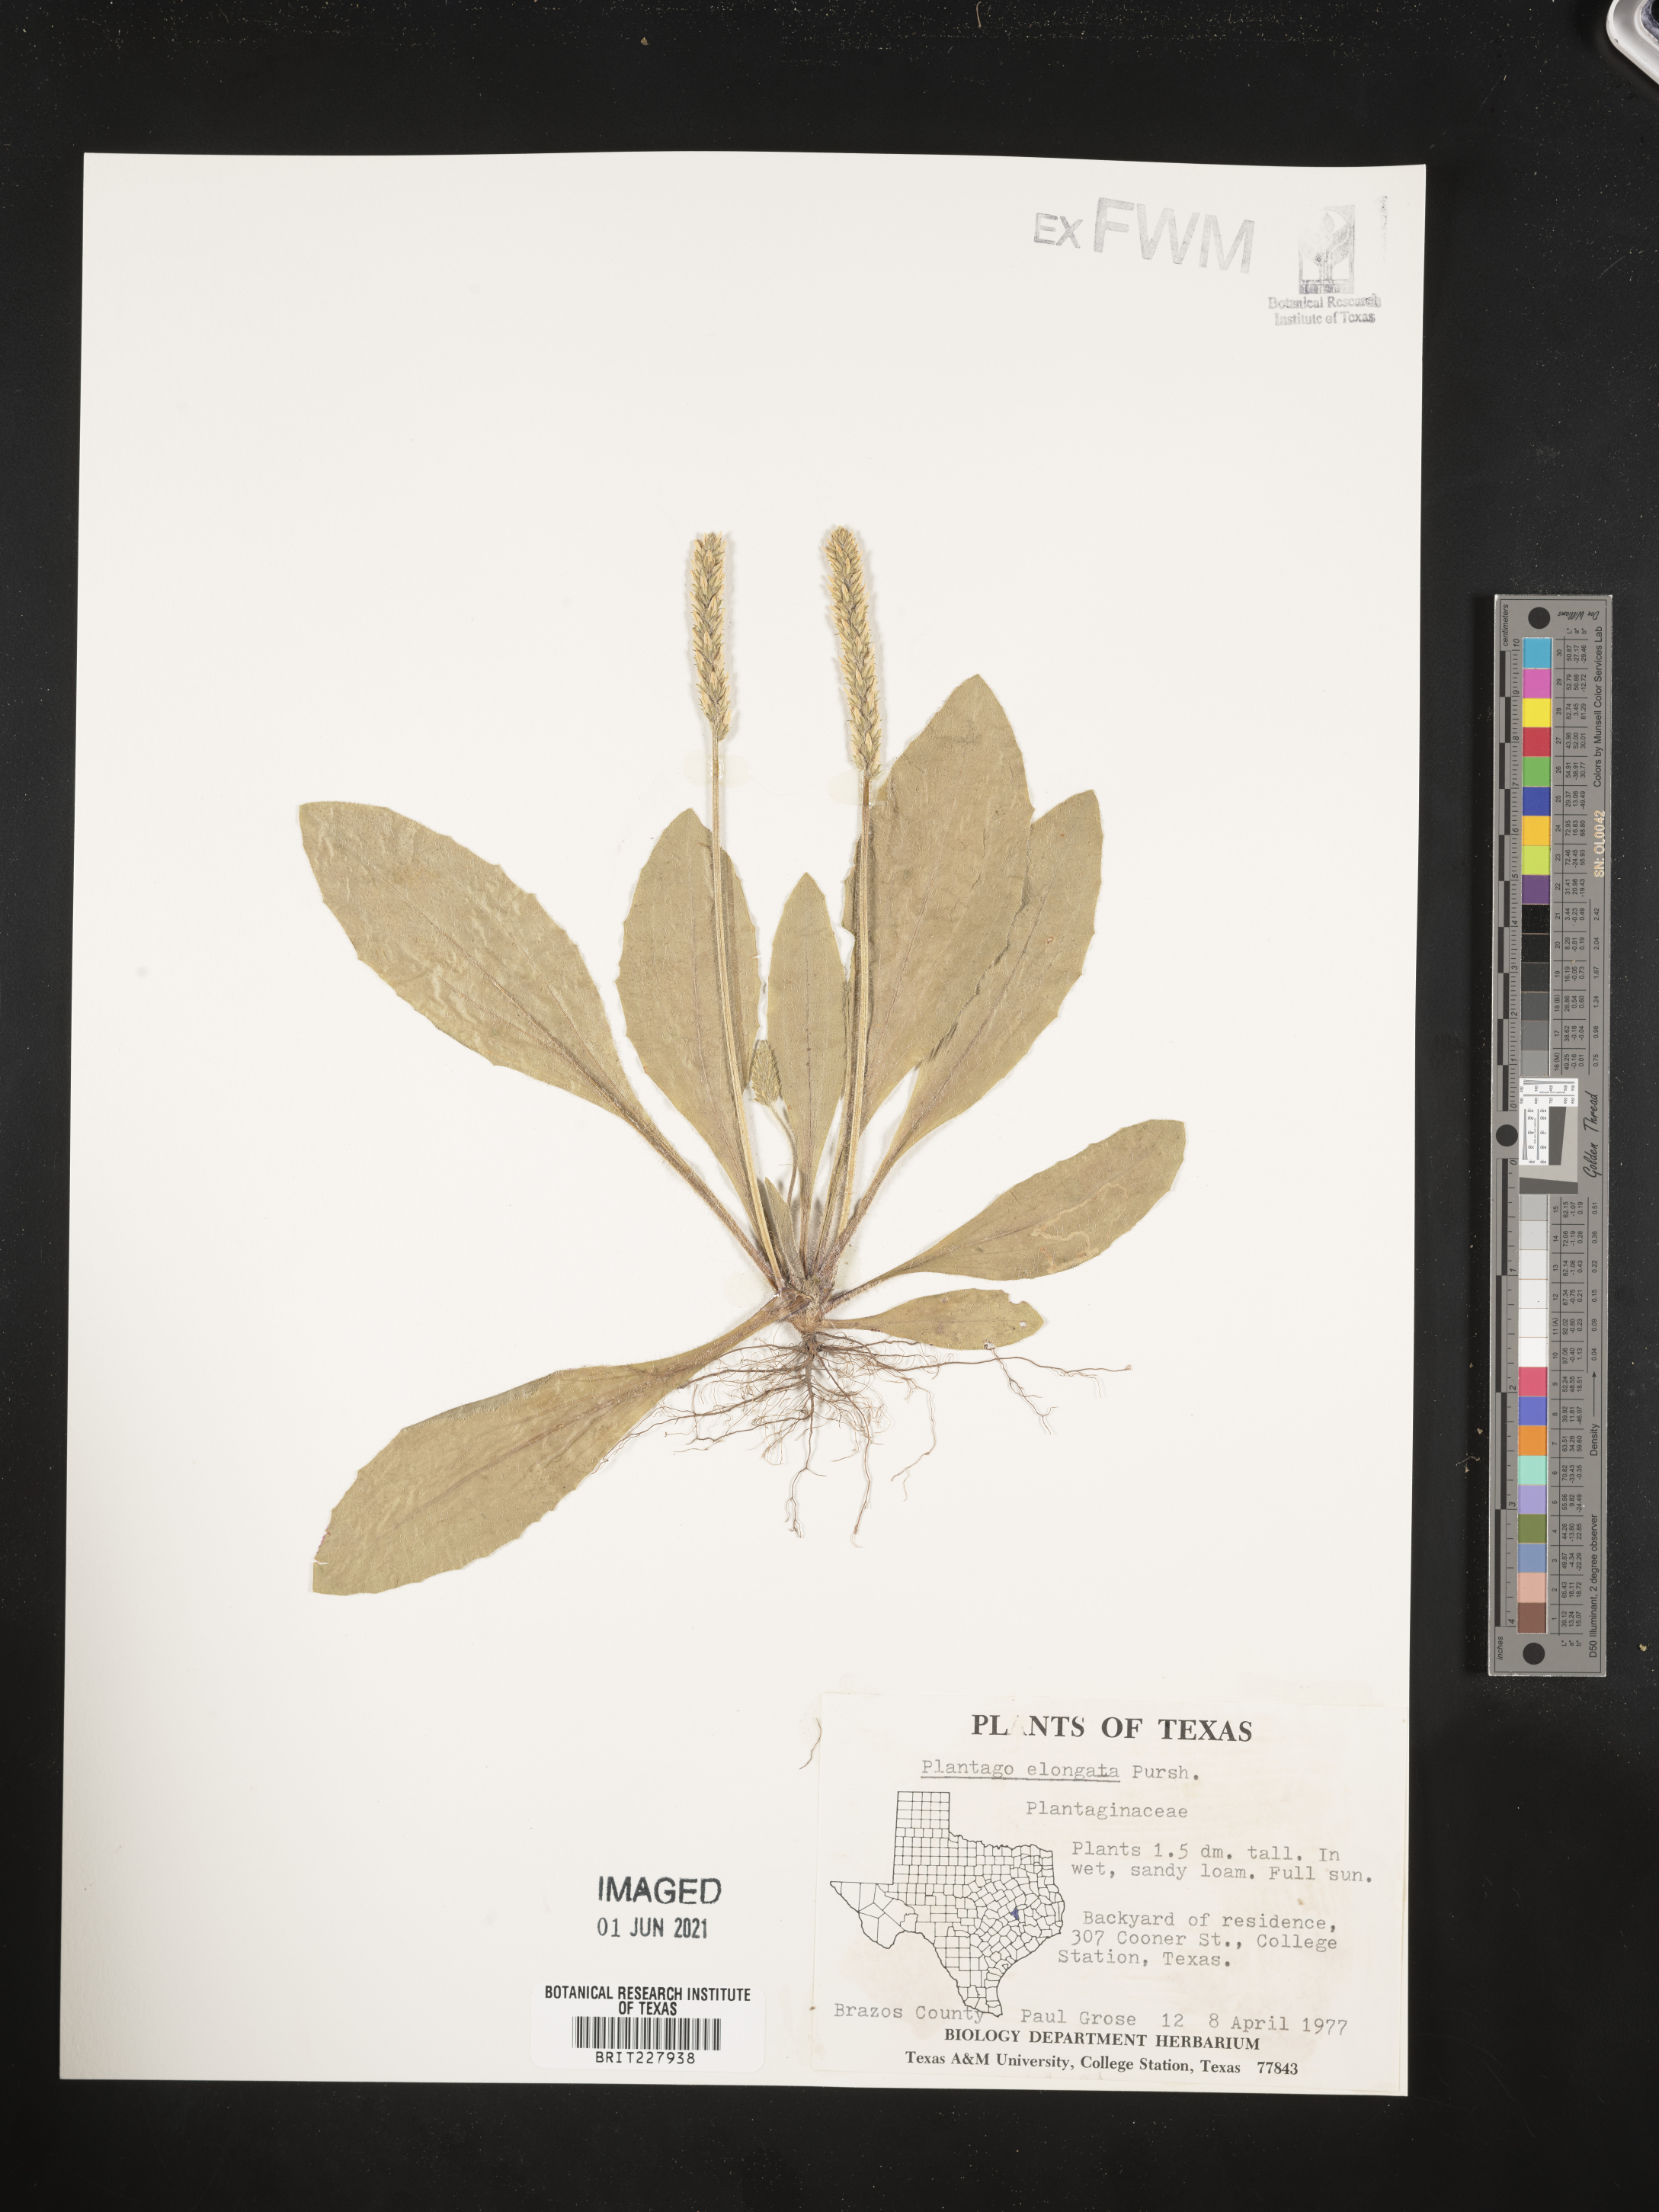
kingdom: Plantae
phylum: Tracheophyta
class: Magnoliopsida
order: Lamiales
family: Plantaginaceae
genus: Plantago
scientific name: Plantago elongata
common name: Linear-leaved plantain
